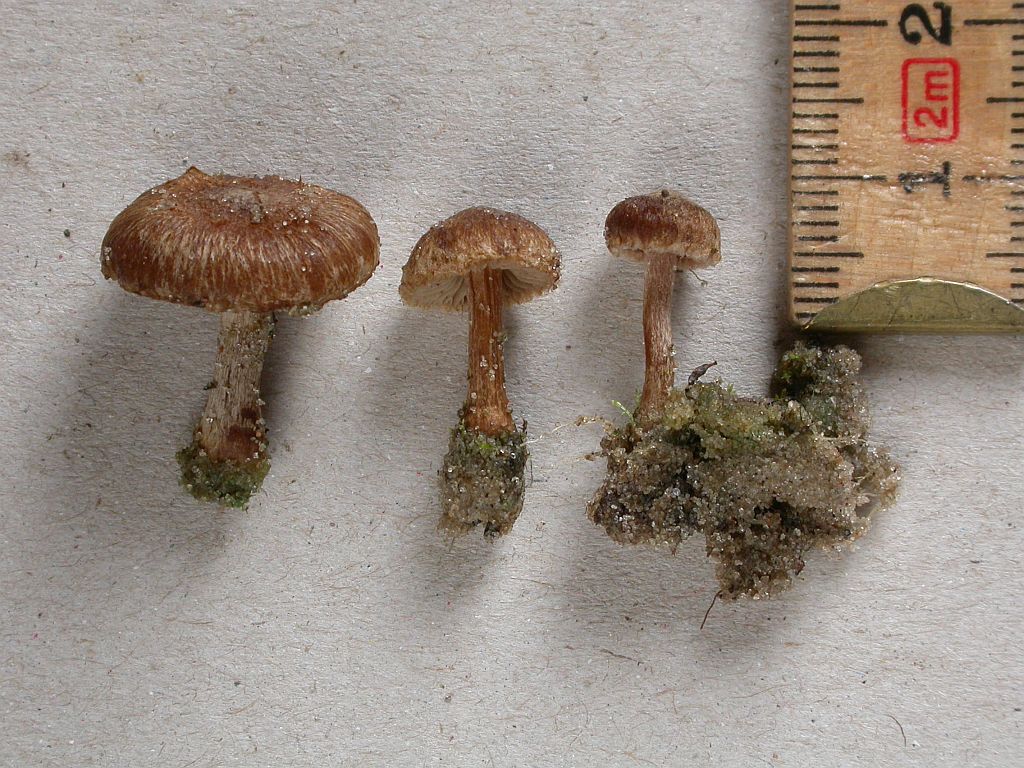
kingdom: Fungi
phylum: Basidiomycota
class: Agaricomycetes
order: Agaricales
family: Inocybaceae
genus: Inocybe
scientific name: Inocybe helobia
